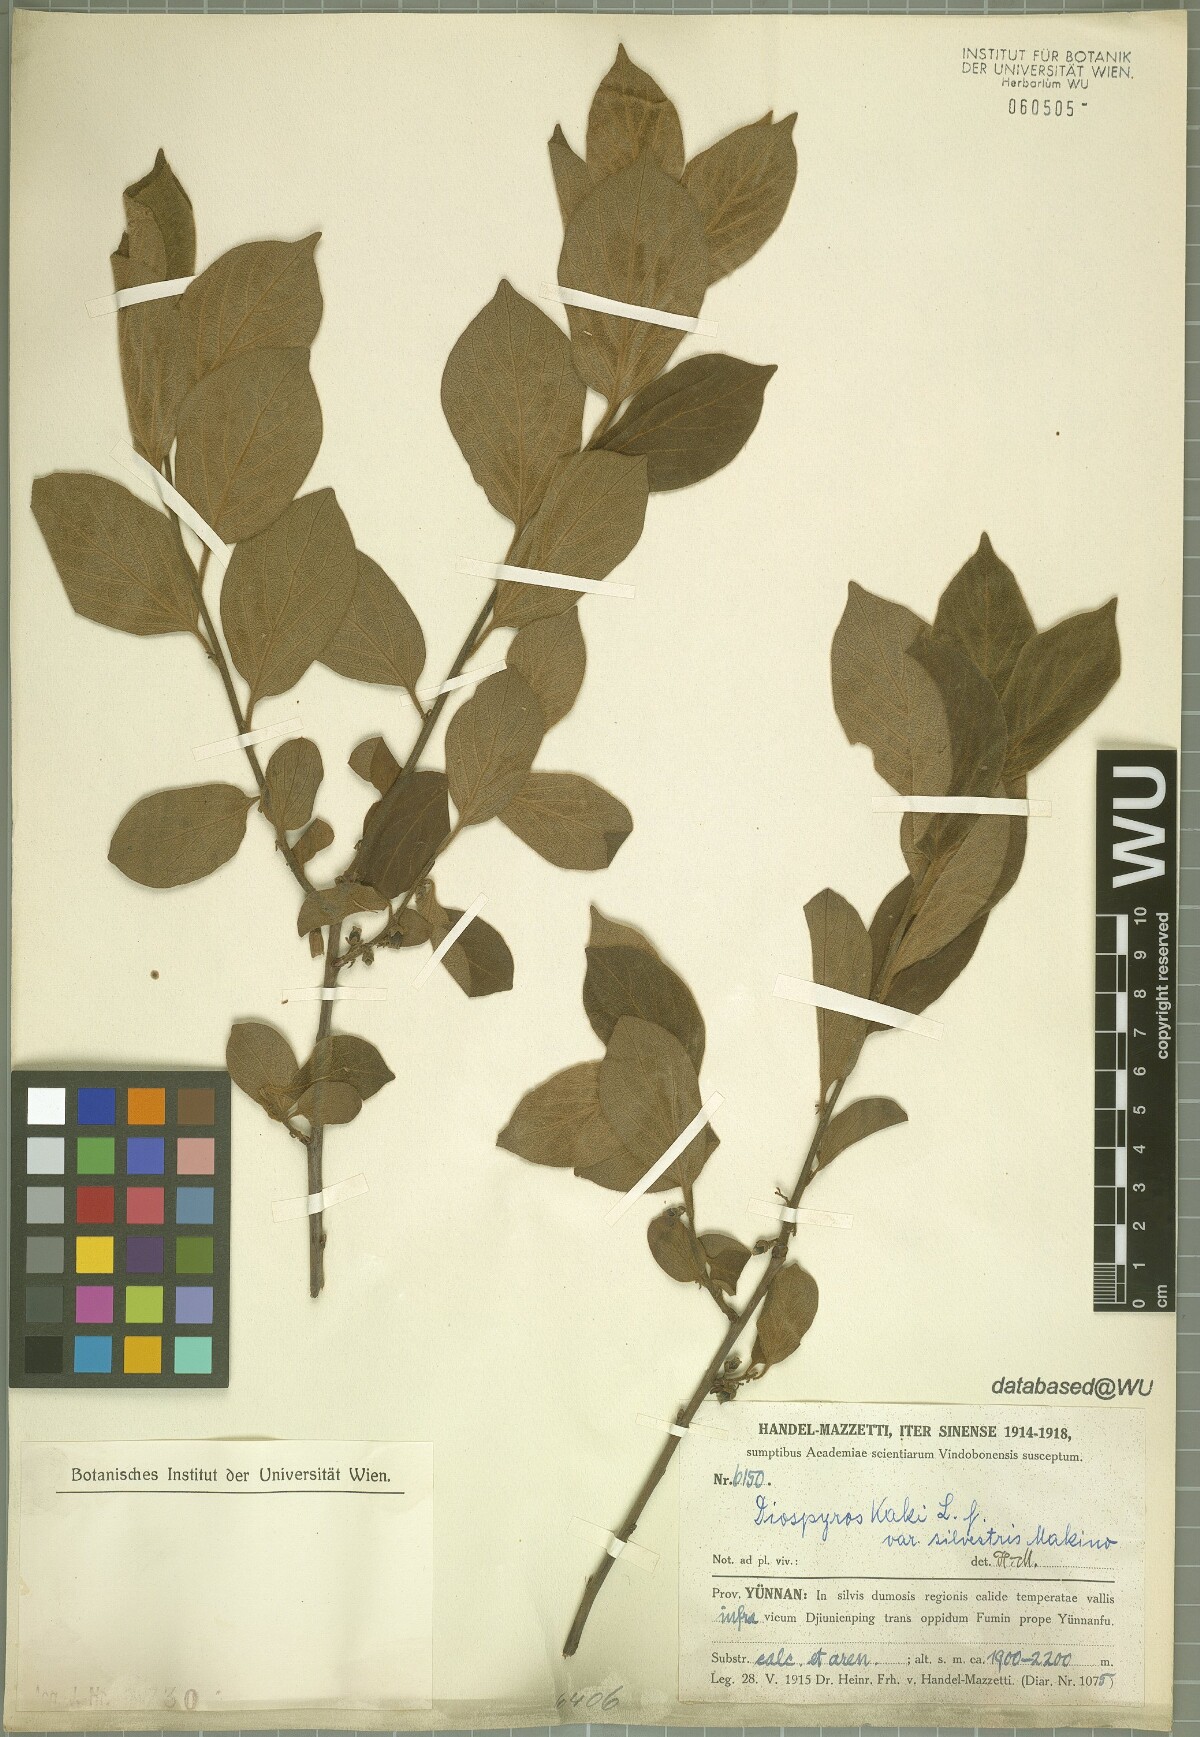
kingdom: Plantae
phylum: Tracheophyta
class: Magnoliopsida
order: Ericales
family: Ebenaceae
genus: Diospyros
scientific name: Diospyros kaki
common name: Persimmon
